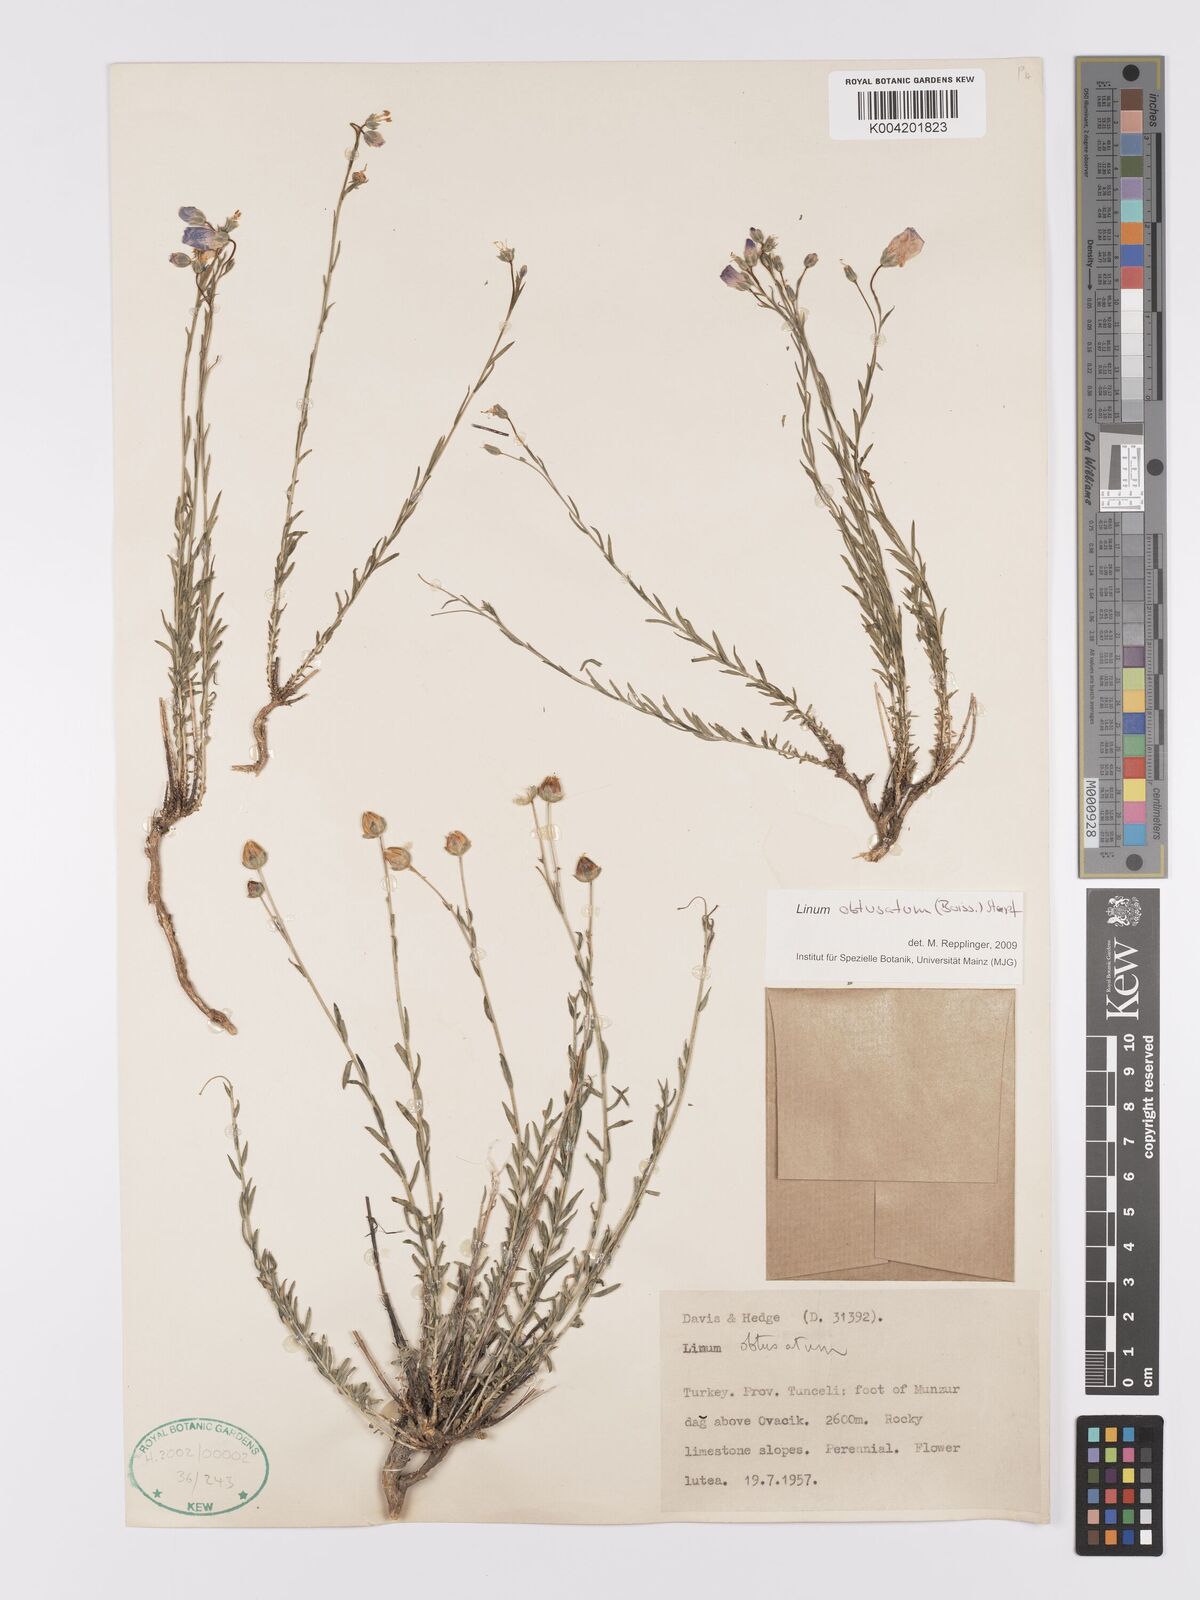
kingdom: Plantae
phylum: Tracheophyta
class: Magnoliopsida
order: Malpighiales
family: Linaceae
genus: Linum
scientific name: Linum obtusatum
